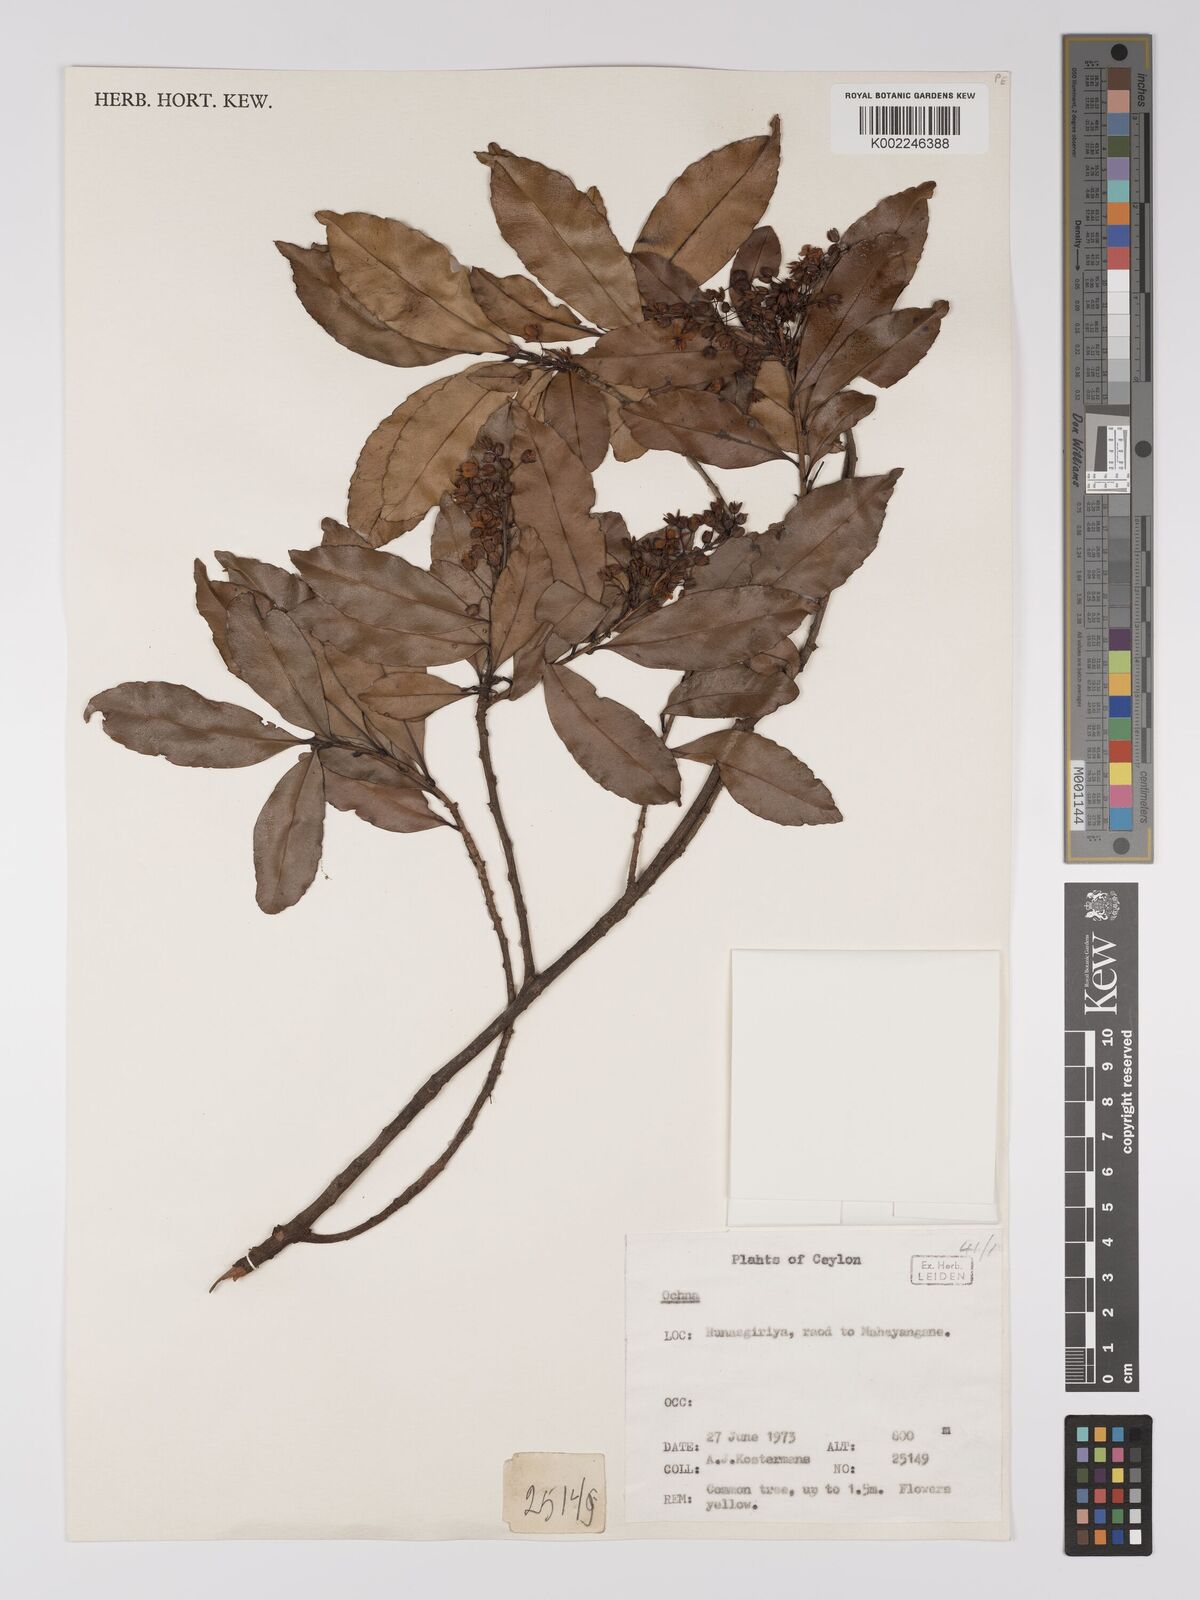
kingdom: Plantae
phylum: Tracheophyta
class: Magnoliopsida
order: Malpighiales
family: Ochnaceae
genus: Ochna
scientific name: Ochna
